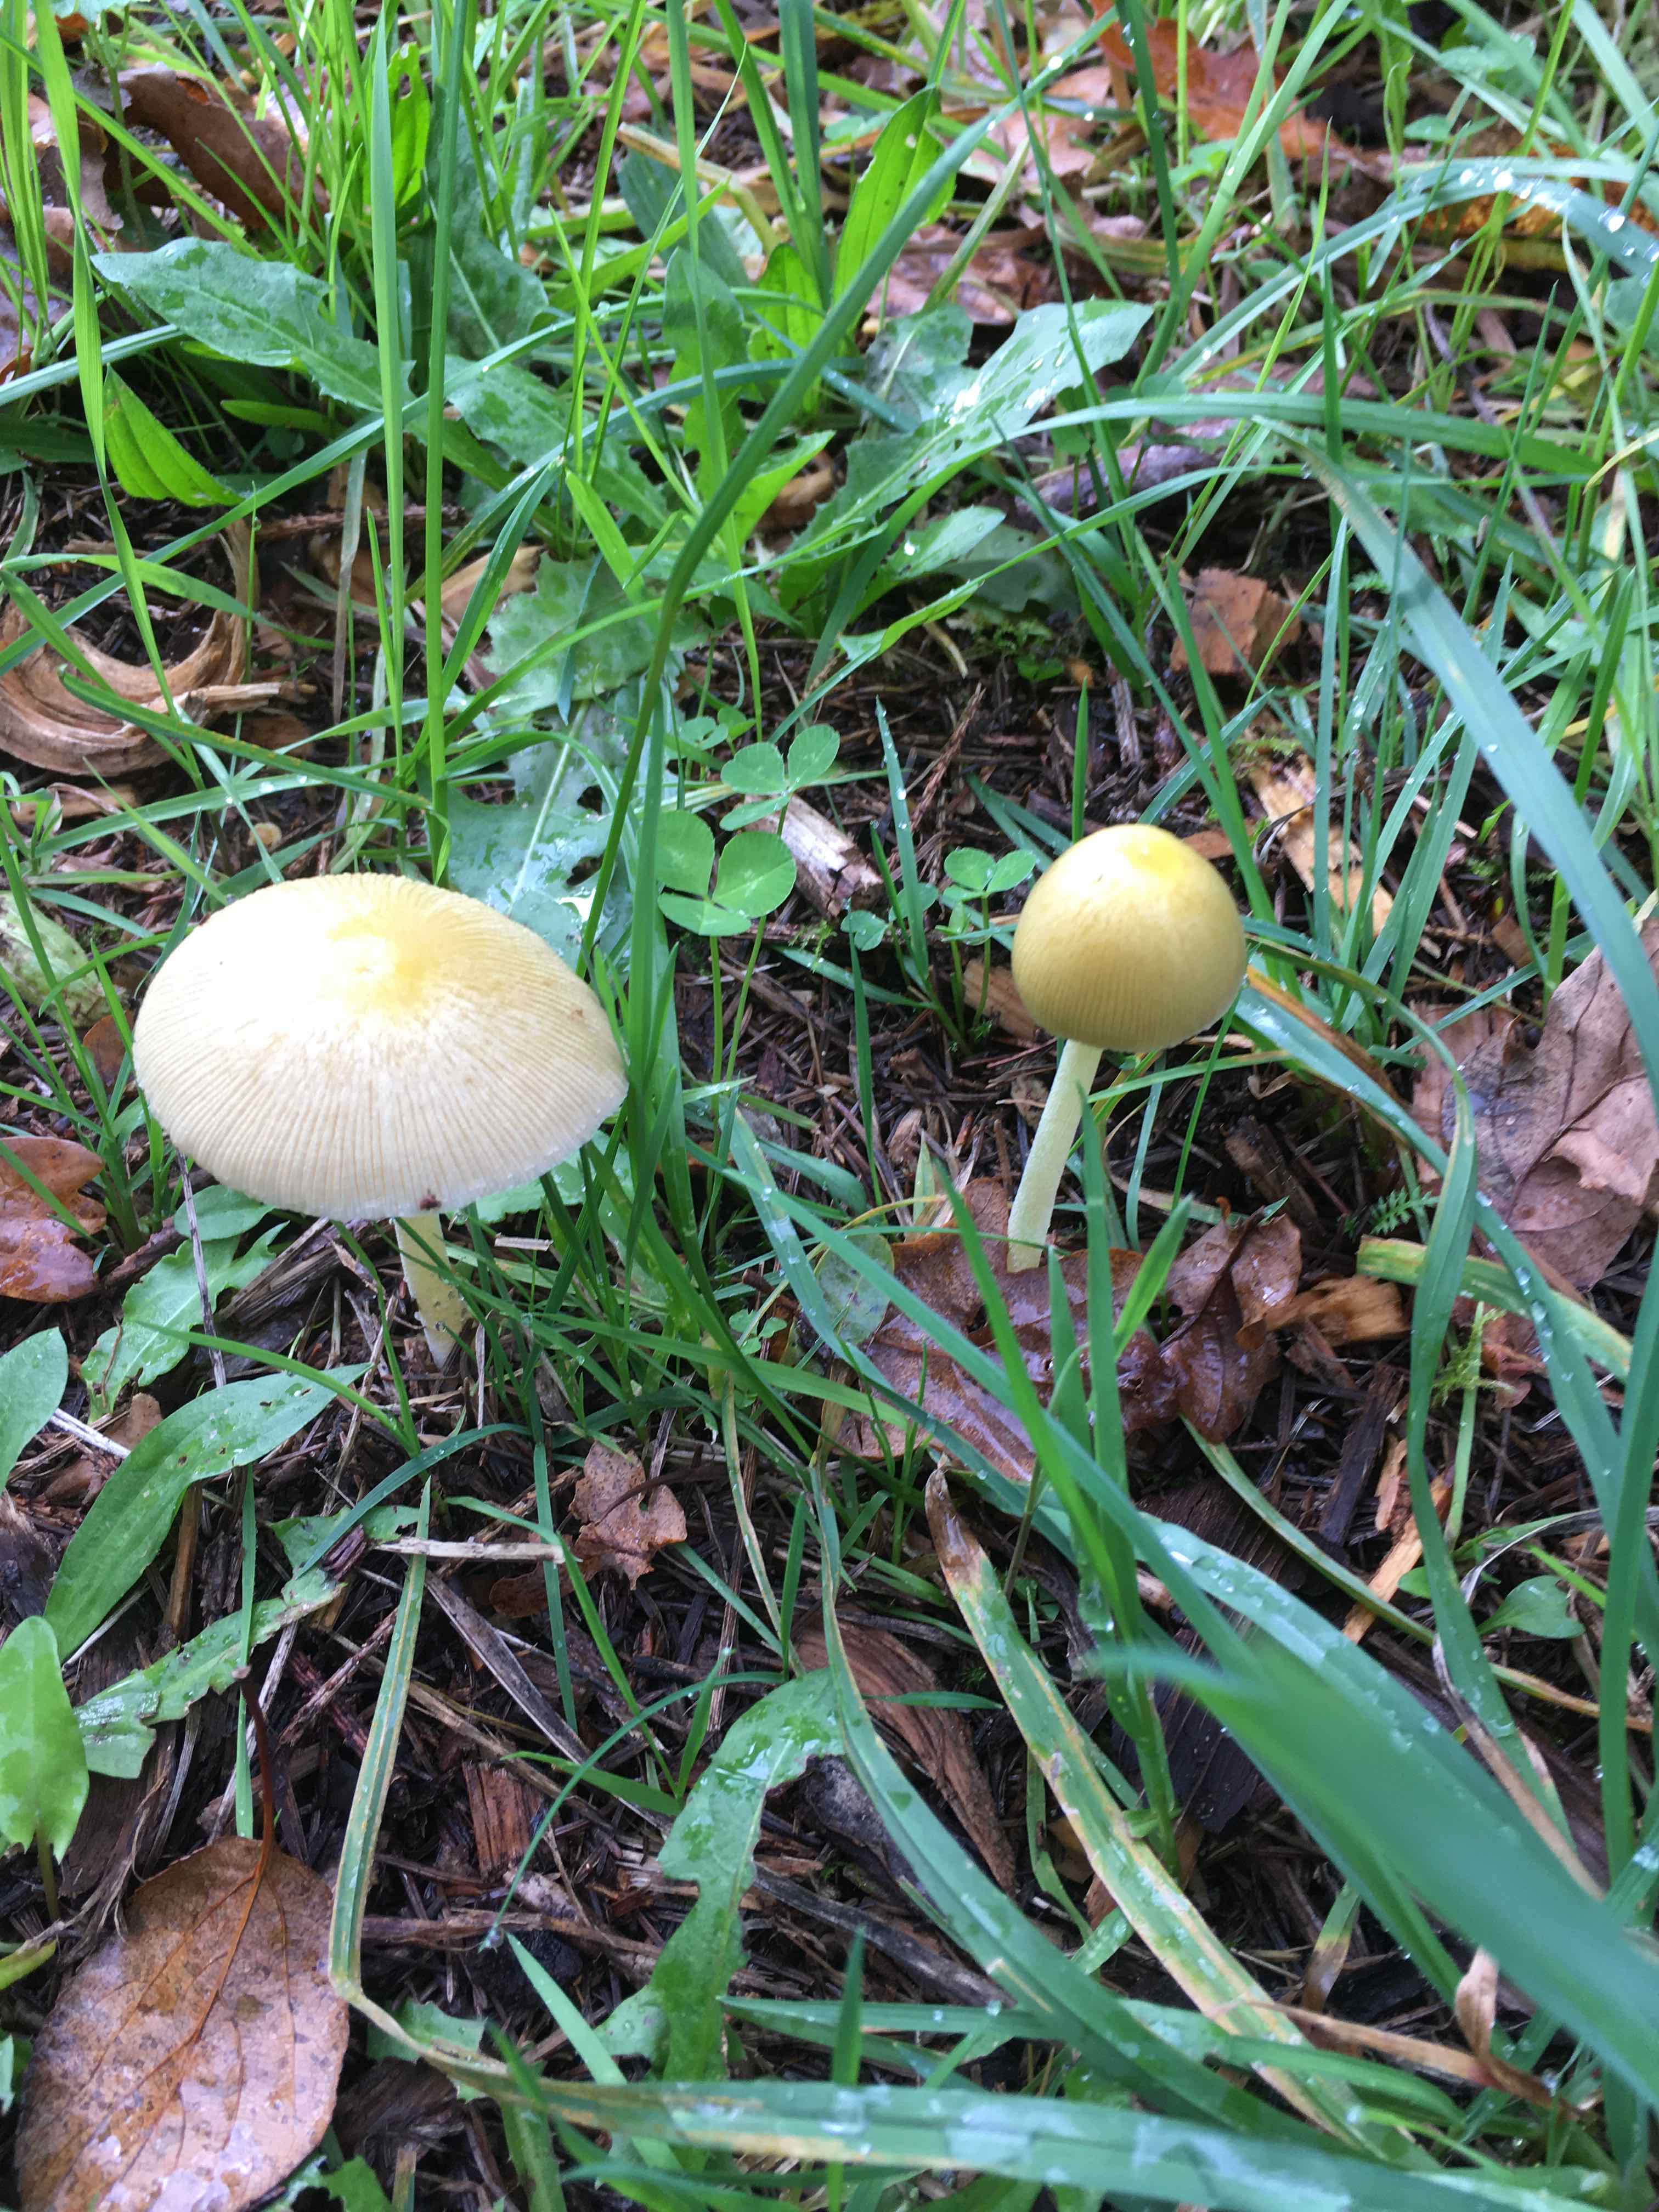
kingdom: Fungi
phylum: Basidiomycota
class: Agaricomycetes
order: Agaricales
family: Bolbitiaceae
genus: Bolbitius
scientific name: Bolbitius titubans
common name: almindelig gulhat
